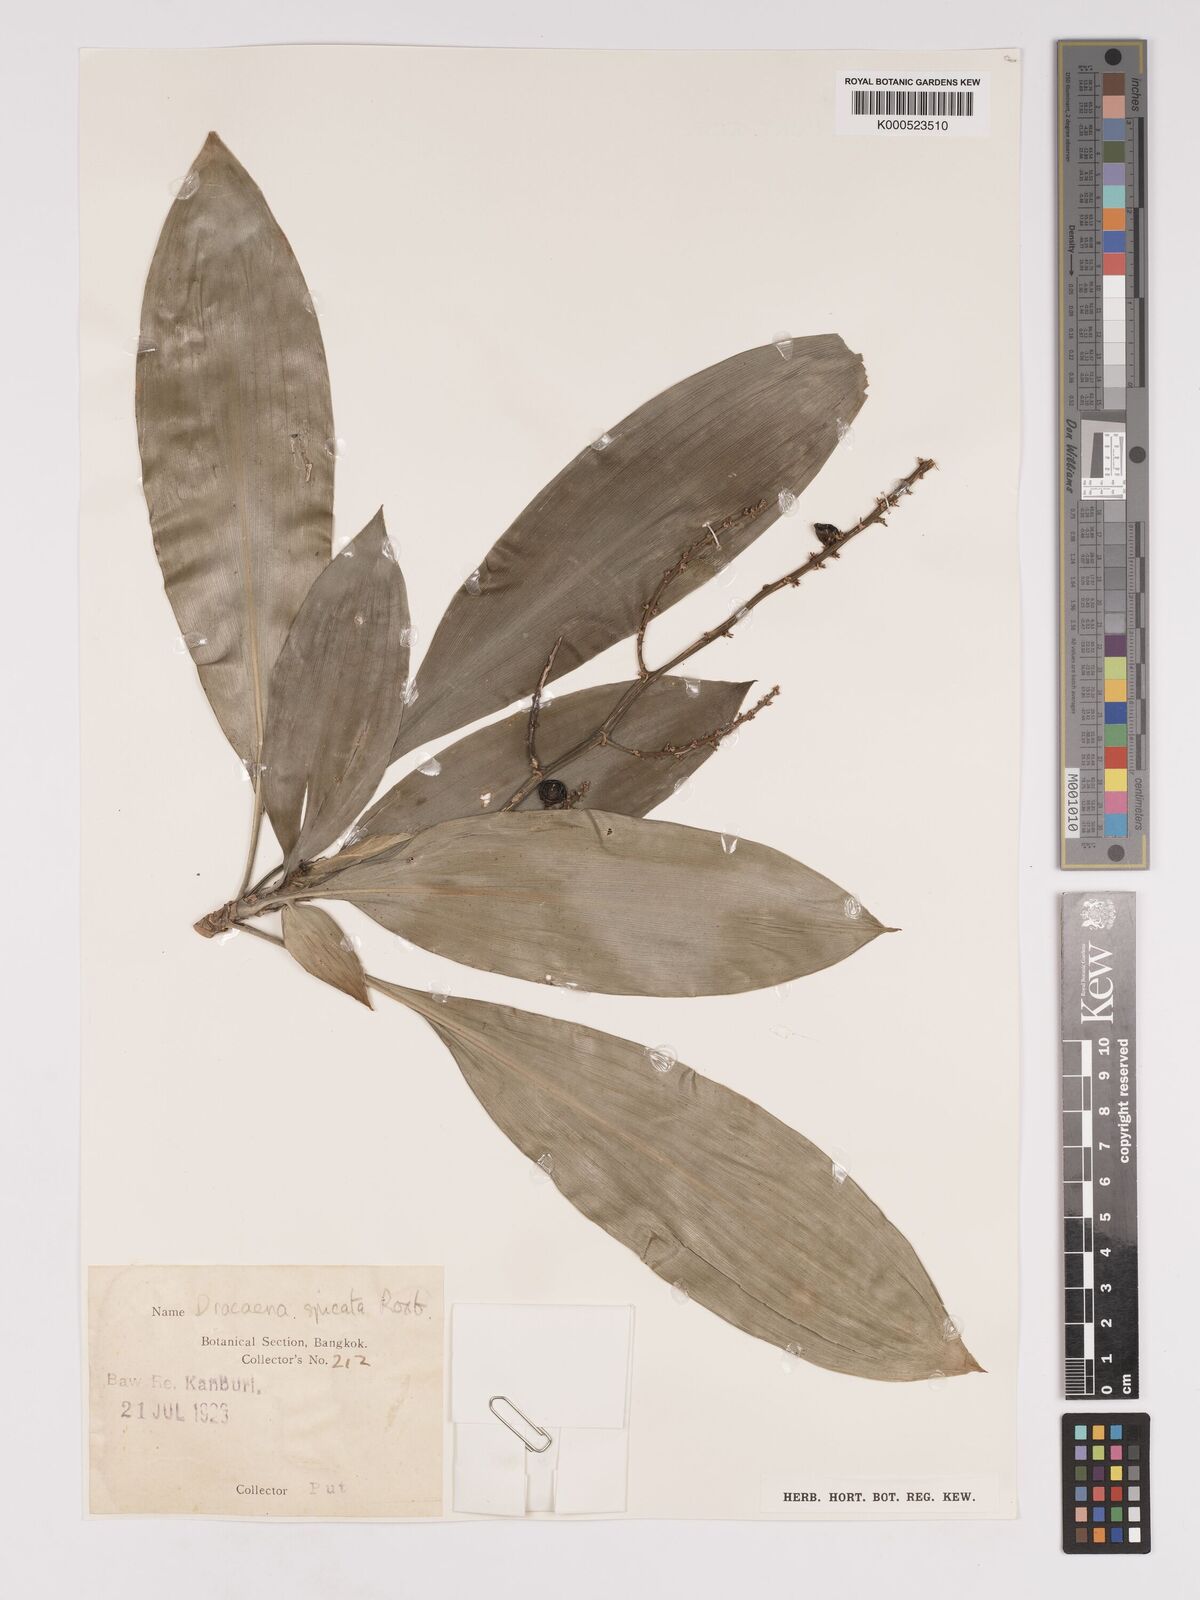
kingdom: Plantae
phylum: Tracheophyta
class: Liliopsida
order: Asparagales
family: Asparagaceae
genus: Dracaena
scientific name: Dracaena spicata
